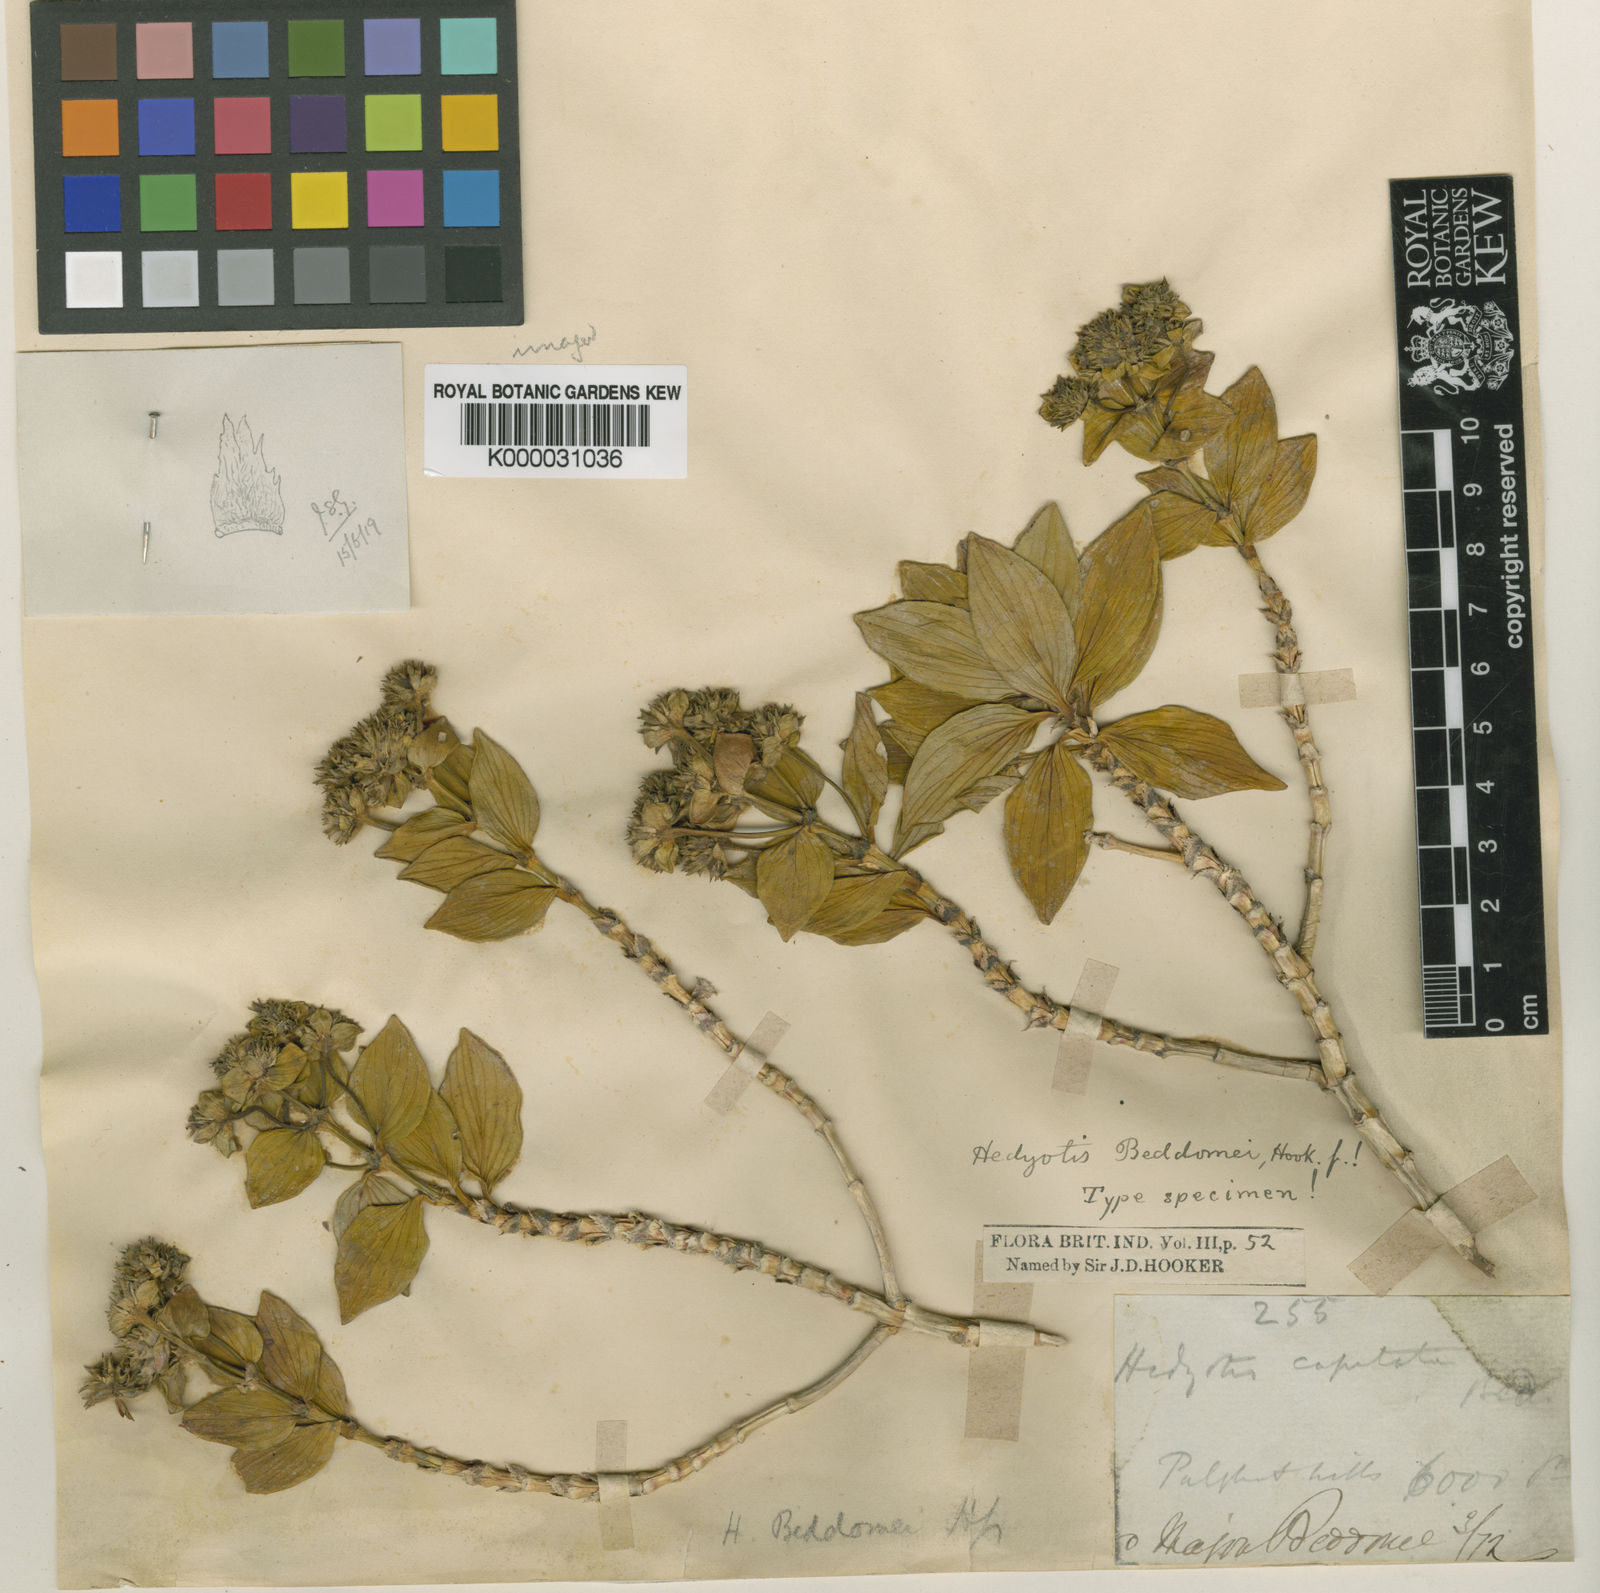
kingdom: Plantae
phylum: Tracheophyta
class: Magnoliopsida
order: Gentianales
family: Rubiaceae
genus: Hedyotis
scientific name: Hedyotis beddomei
